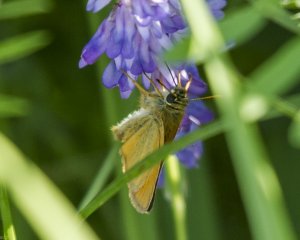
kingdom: Animalia
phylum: Arthropoda
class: Insecta
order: Lepidoptera
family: Hesperiidae
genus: Thymelicus
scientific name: Thymelicus lineola
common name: European Skipper
